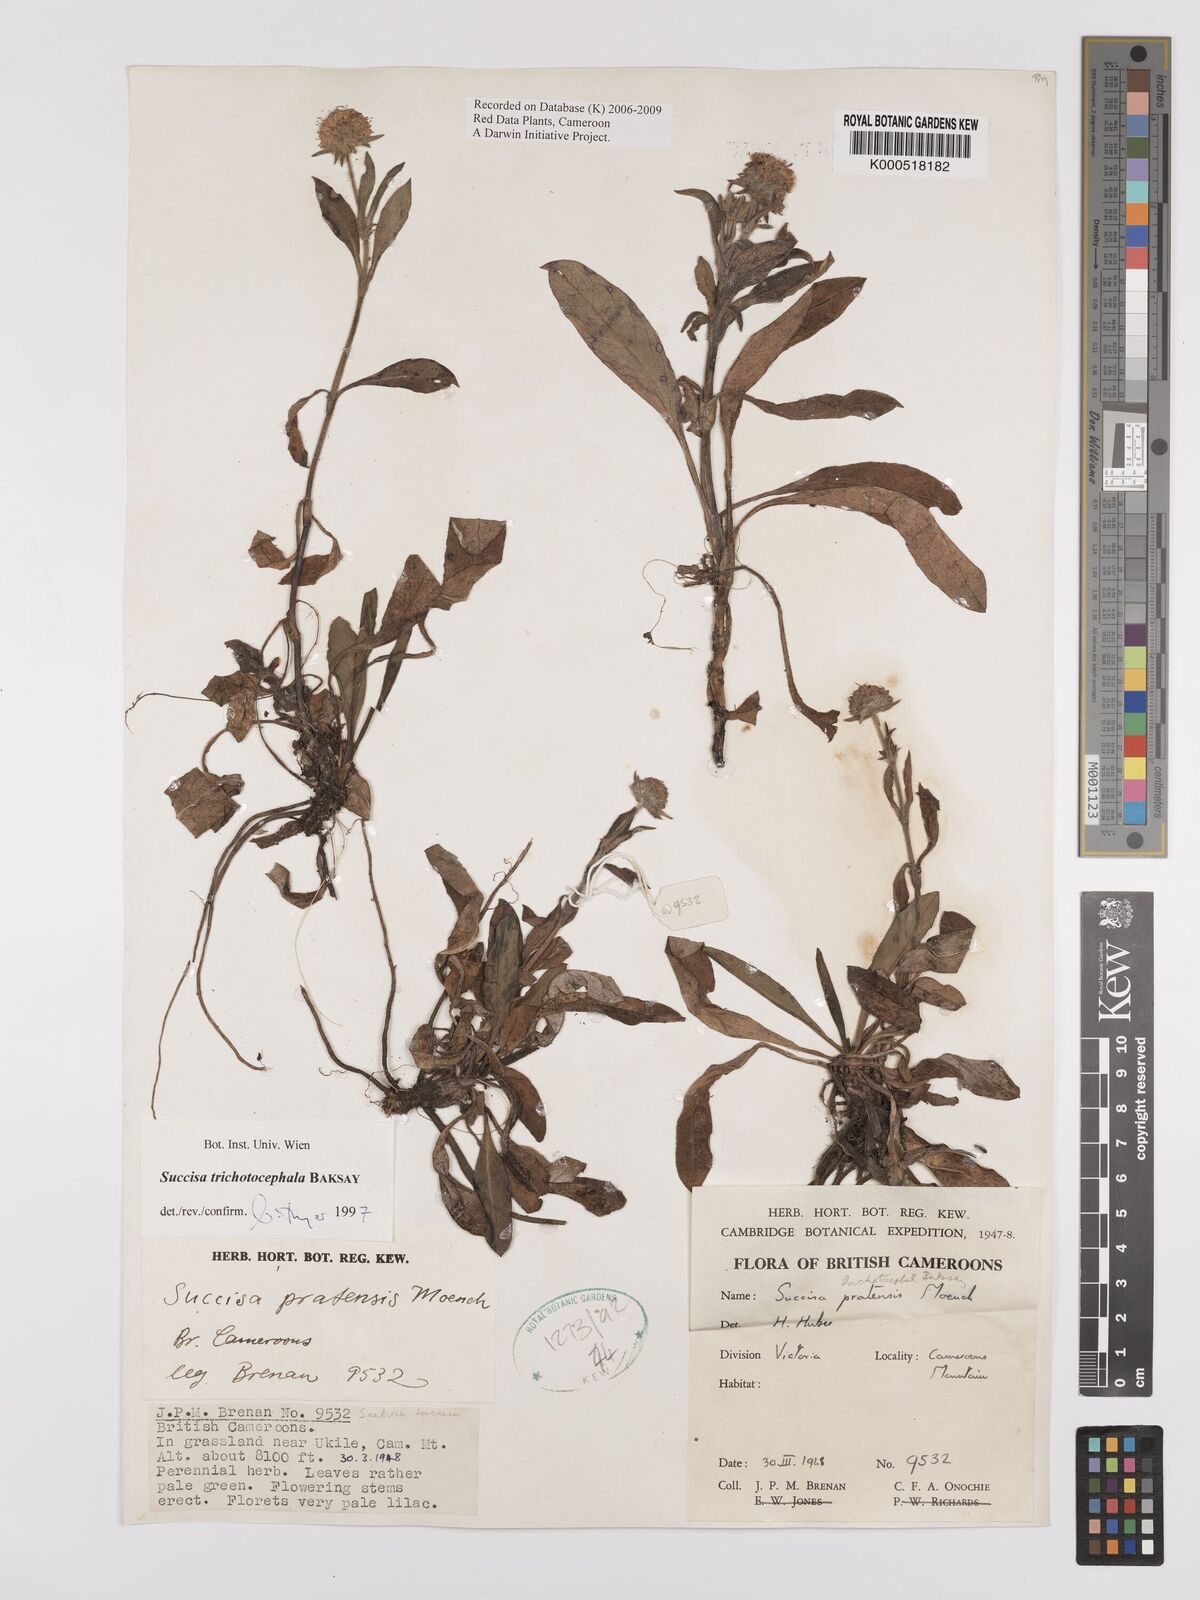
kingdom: Plantae
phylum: Tracheophyta
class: Magnoliopsida
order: Dipsacales
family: Caprifoliaceae
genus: Succisa
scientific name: Succisa trichotocephala
